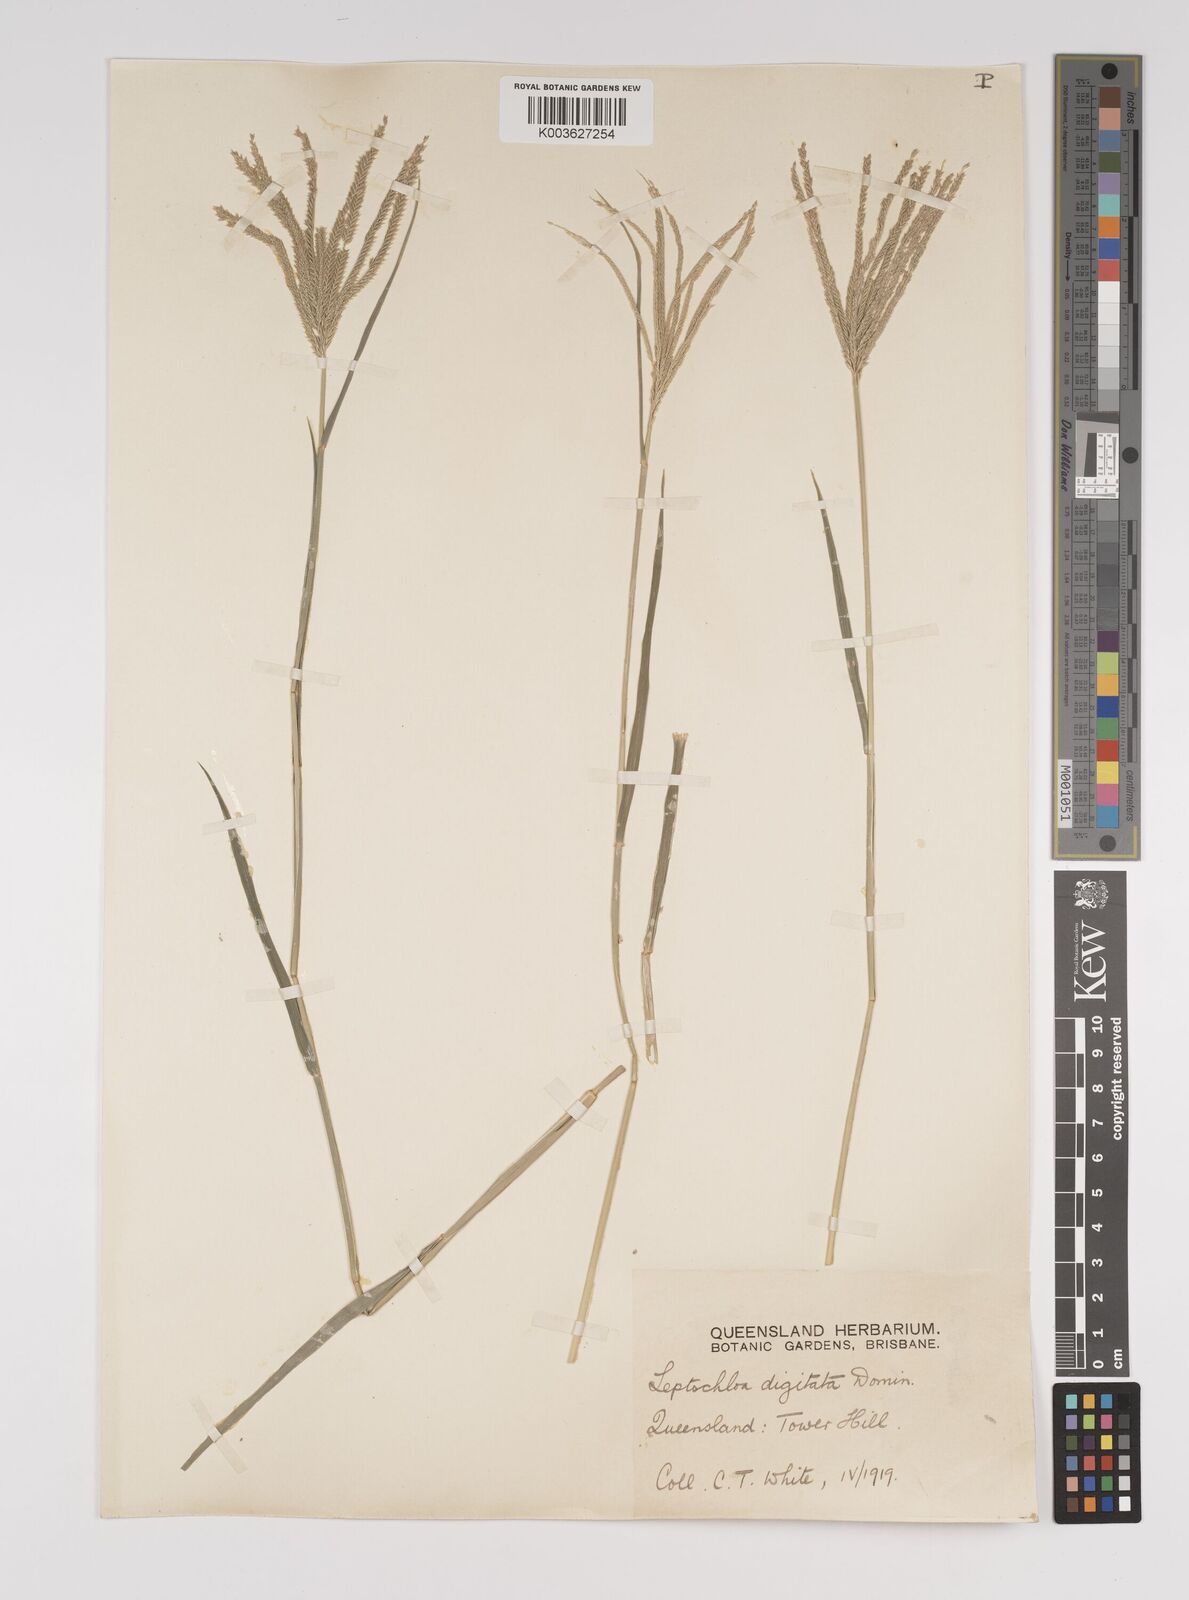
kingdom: Plantae
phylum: Tracheophyta
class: Liliopsida
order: Poales
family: Poaceae
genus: Leptochloa
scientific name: Leptochloa digitata
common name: Finger sprangletop
